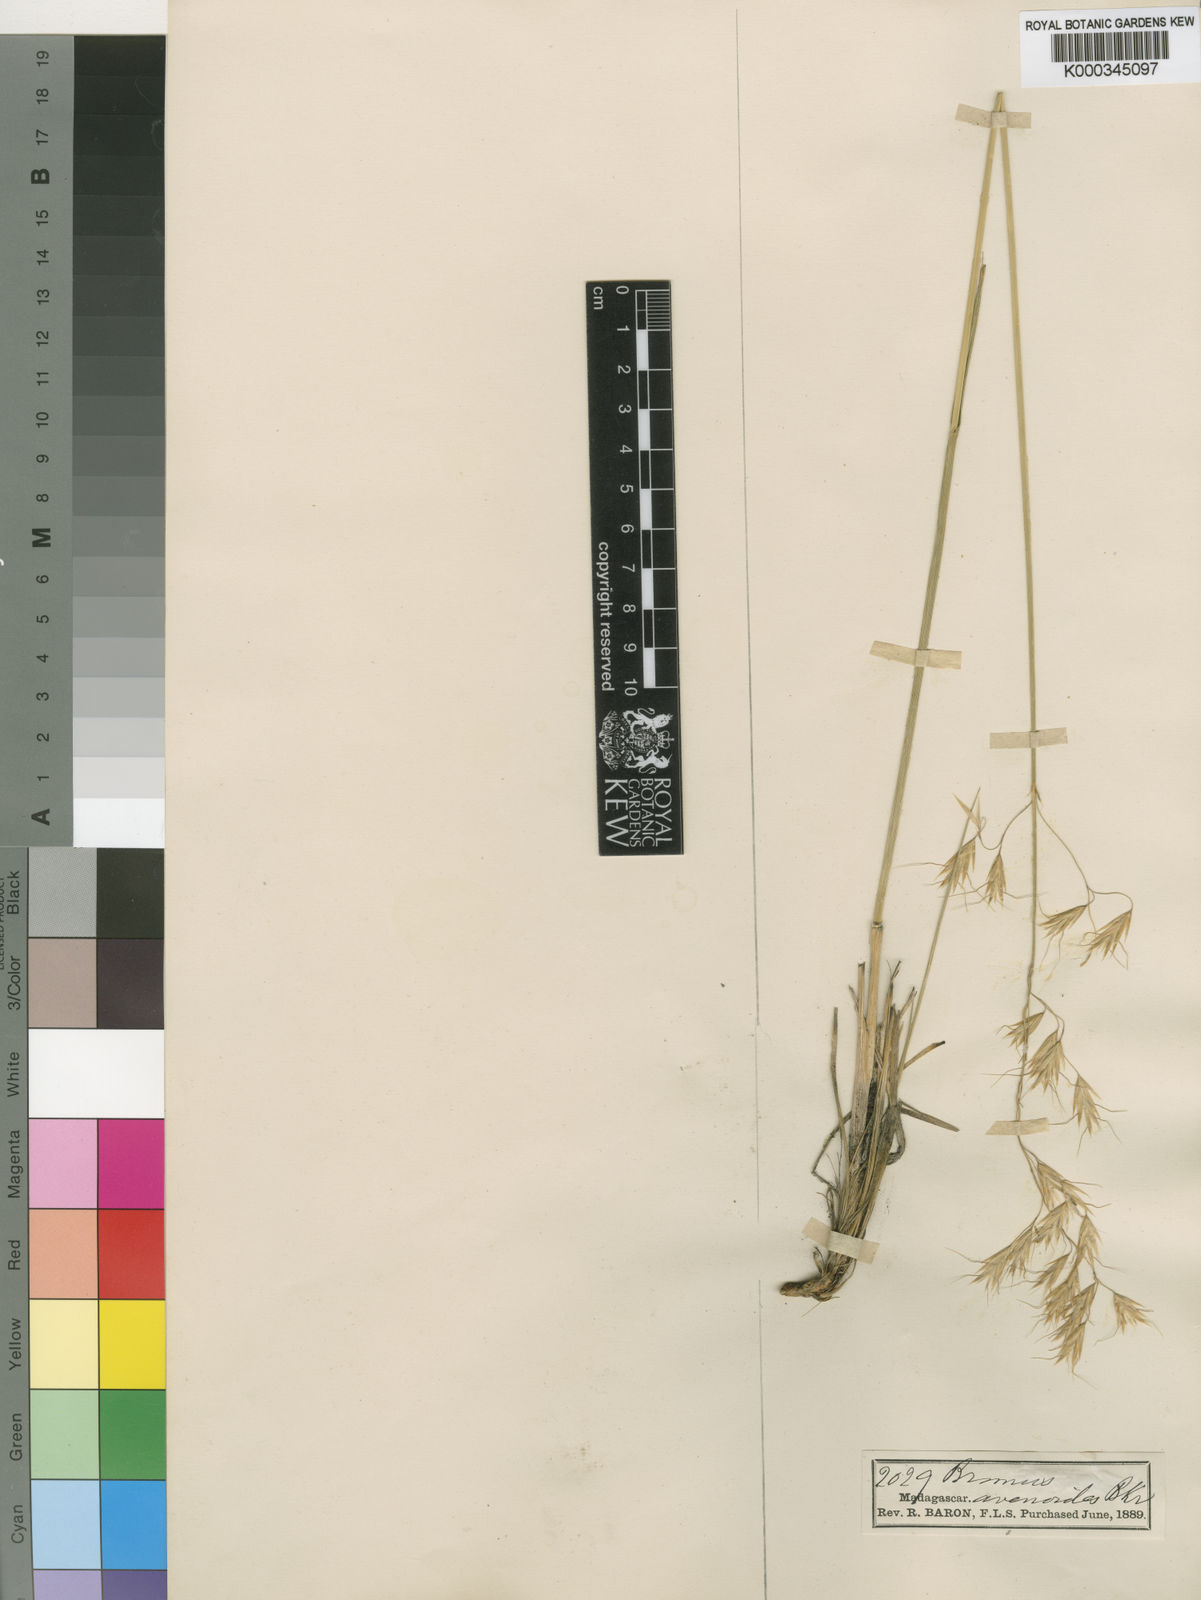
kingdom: Plantae
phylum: Tracheophyta
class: Liliopsida
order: Poales
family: Poaceae
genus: Trisetopsis
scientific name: Trisetopsis elongata
